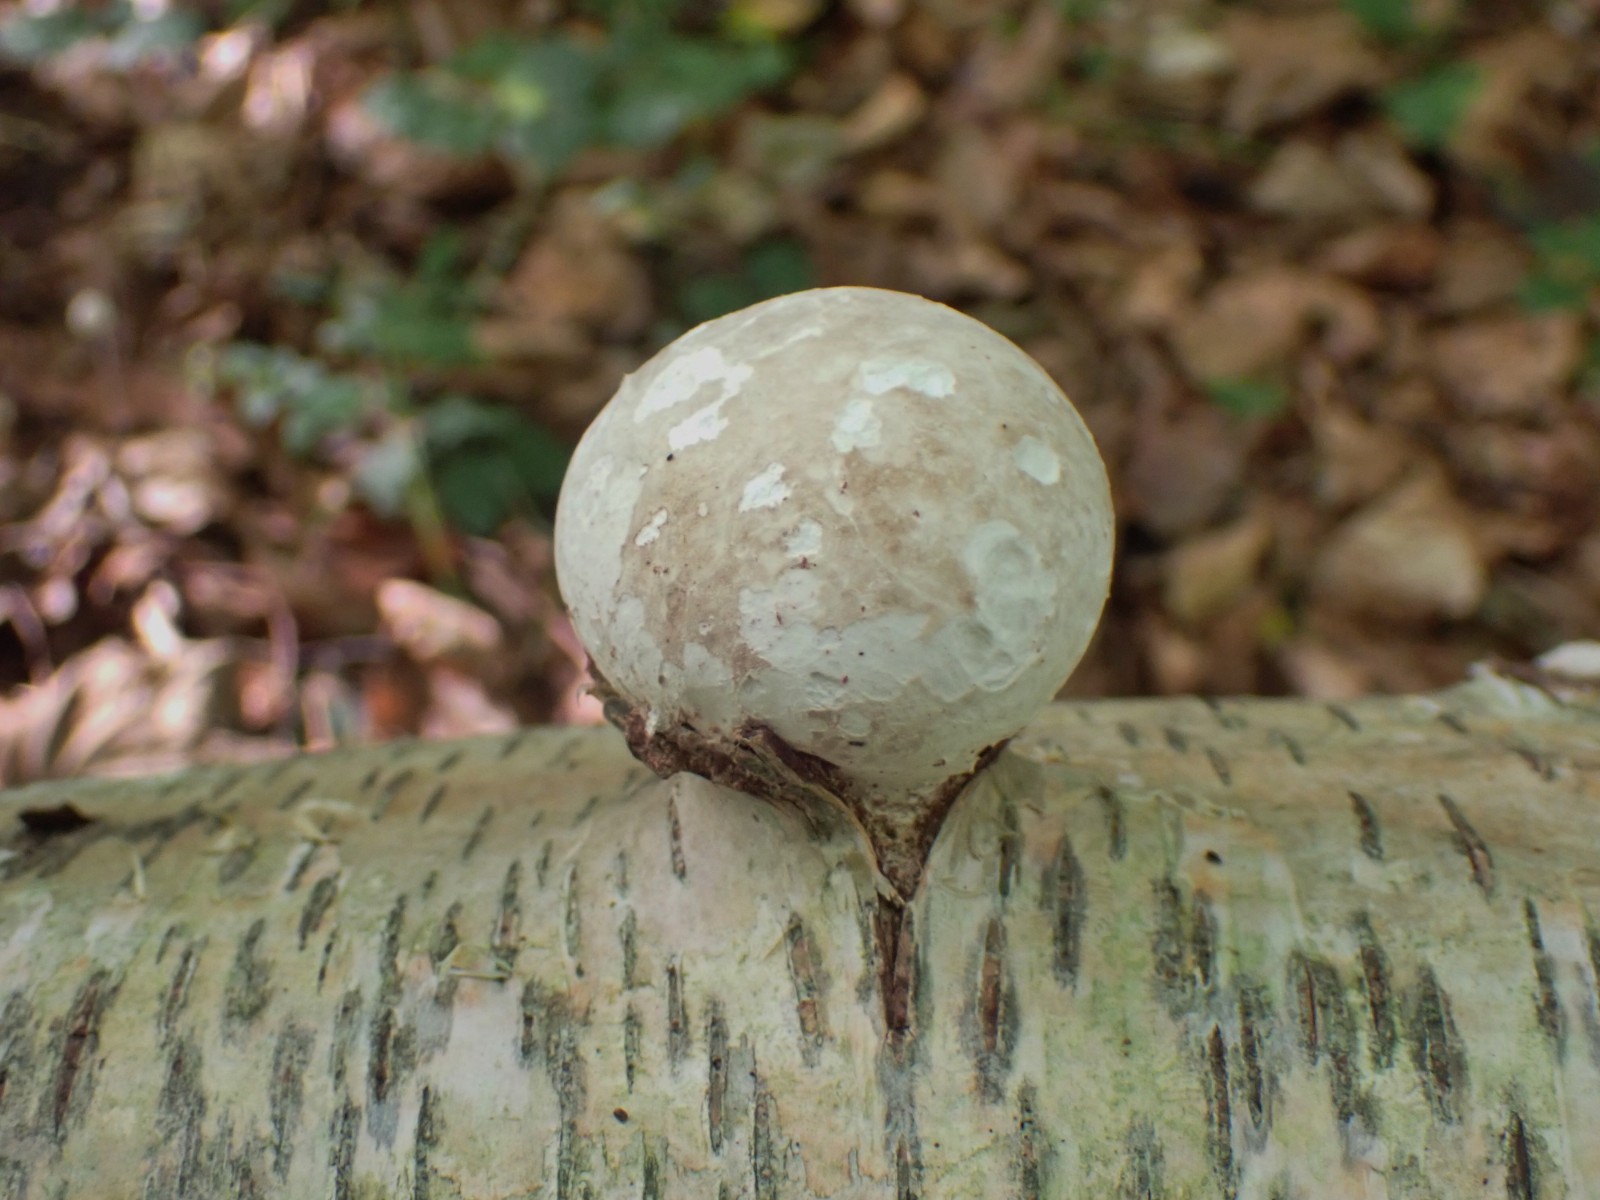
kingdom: Fungi
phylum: Basidiomycota
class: Agaricomycetes
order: Polyporales
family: Fomitopsidaceae
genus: Fomitopsis
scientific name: Fomitopsis betulina
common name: birkeporesvamp
